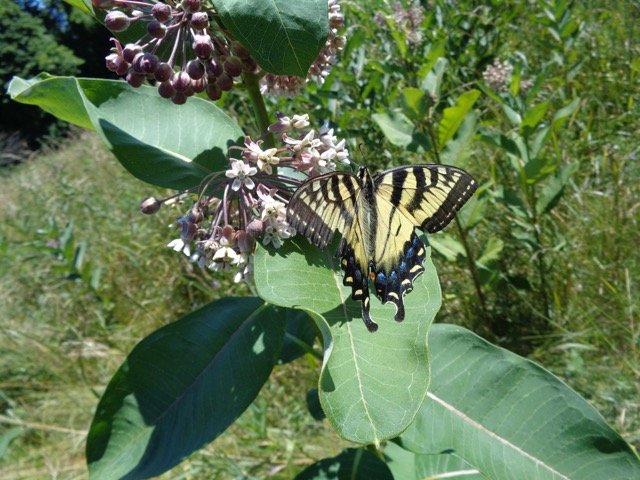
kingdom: Animalia
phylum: Arthropoda
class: Insecta
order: Lepidoptera
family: Papilionidae
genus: Pterourus
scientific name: Pterourus
